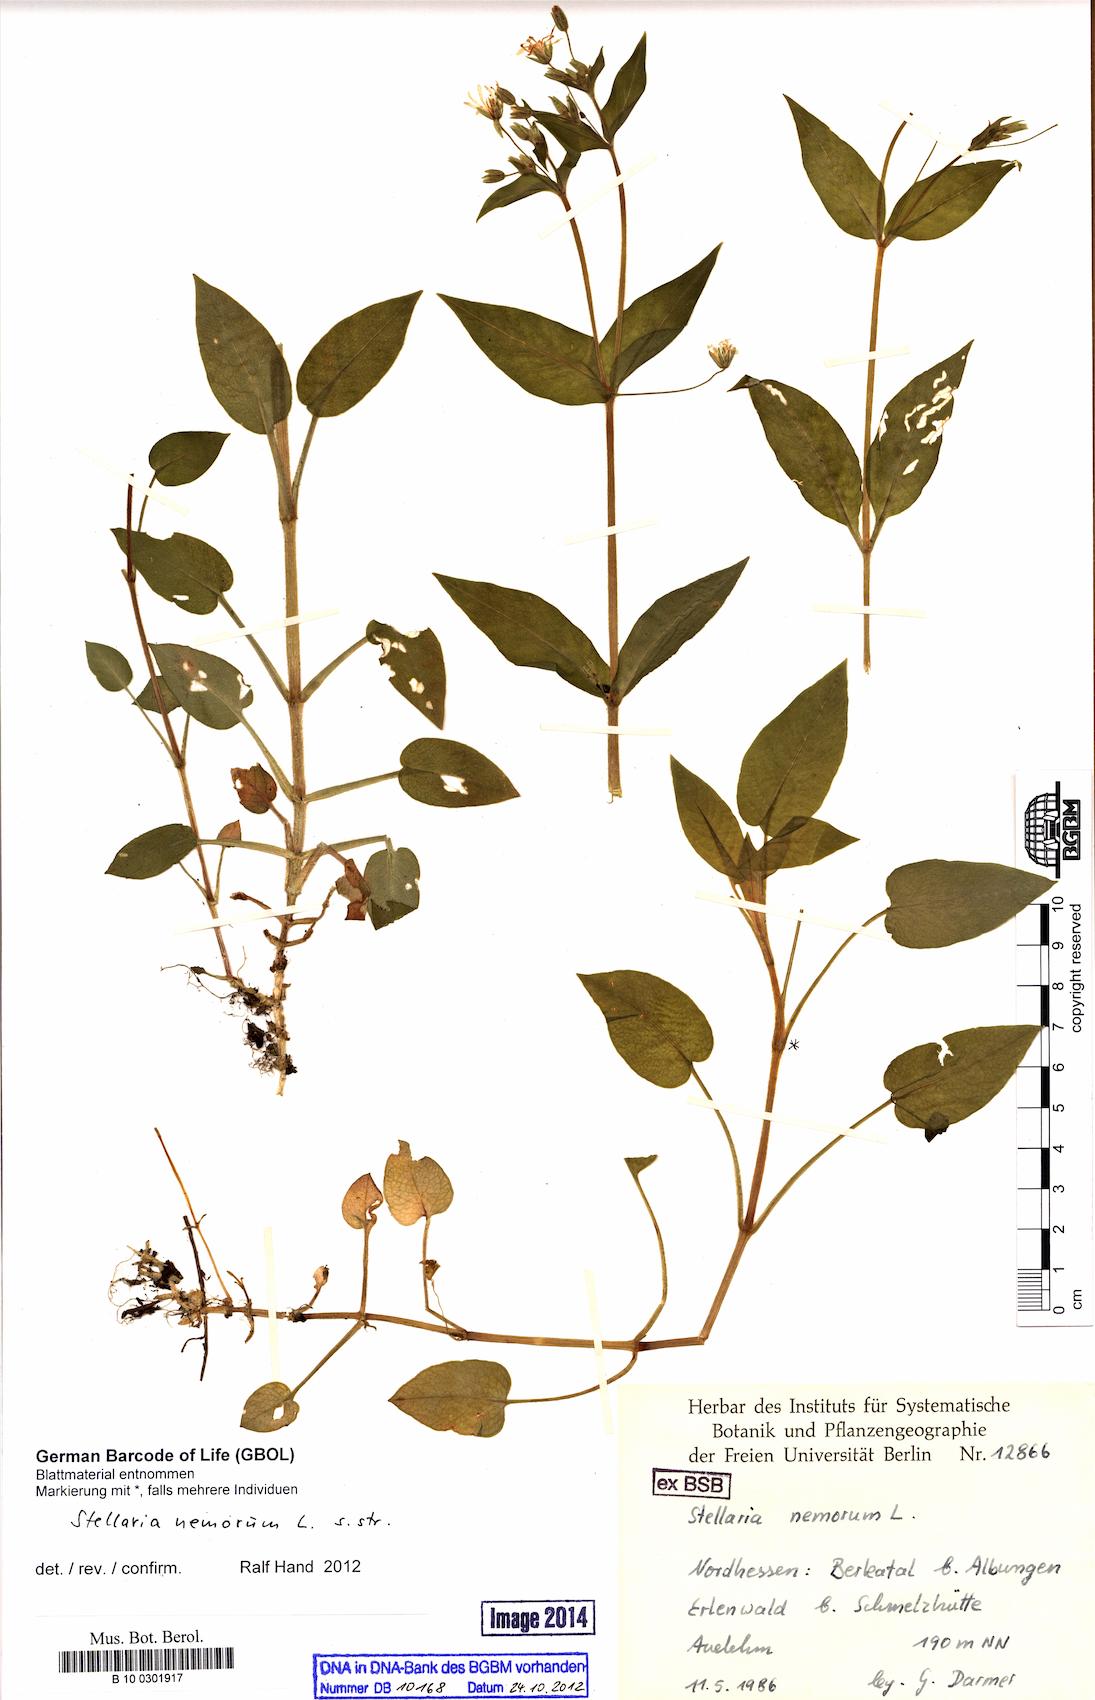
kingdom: Plantae
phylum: Tracheophyta
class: Magnoliopsida
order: Caryophyllales
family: Caryophyllaceae
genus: Stellaria
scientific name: Stellaria nemorum
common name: Wood stitchwort
